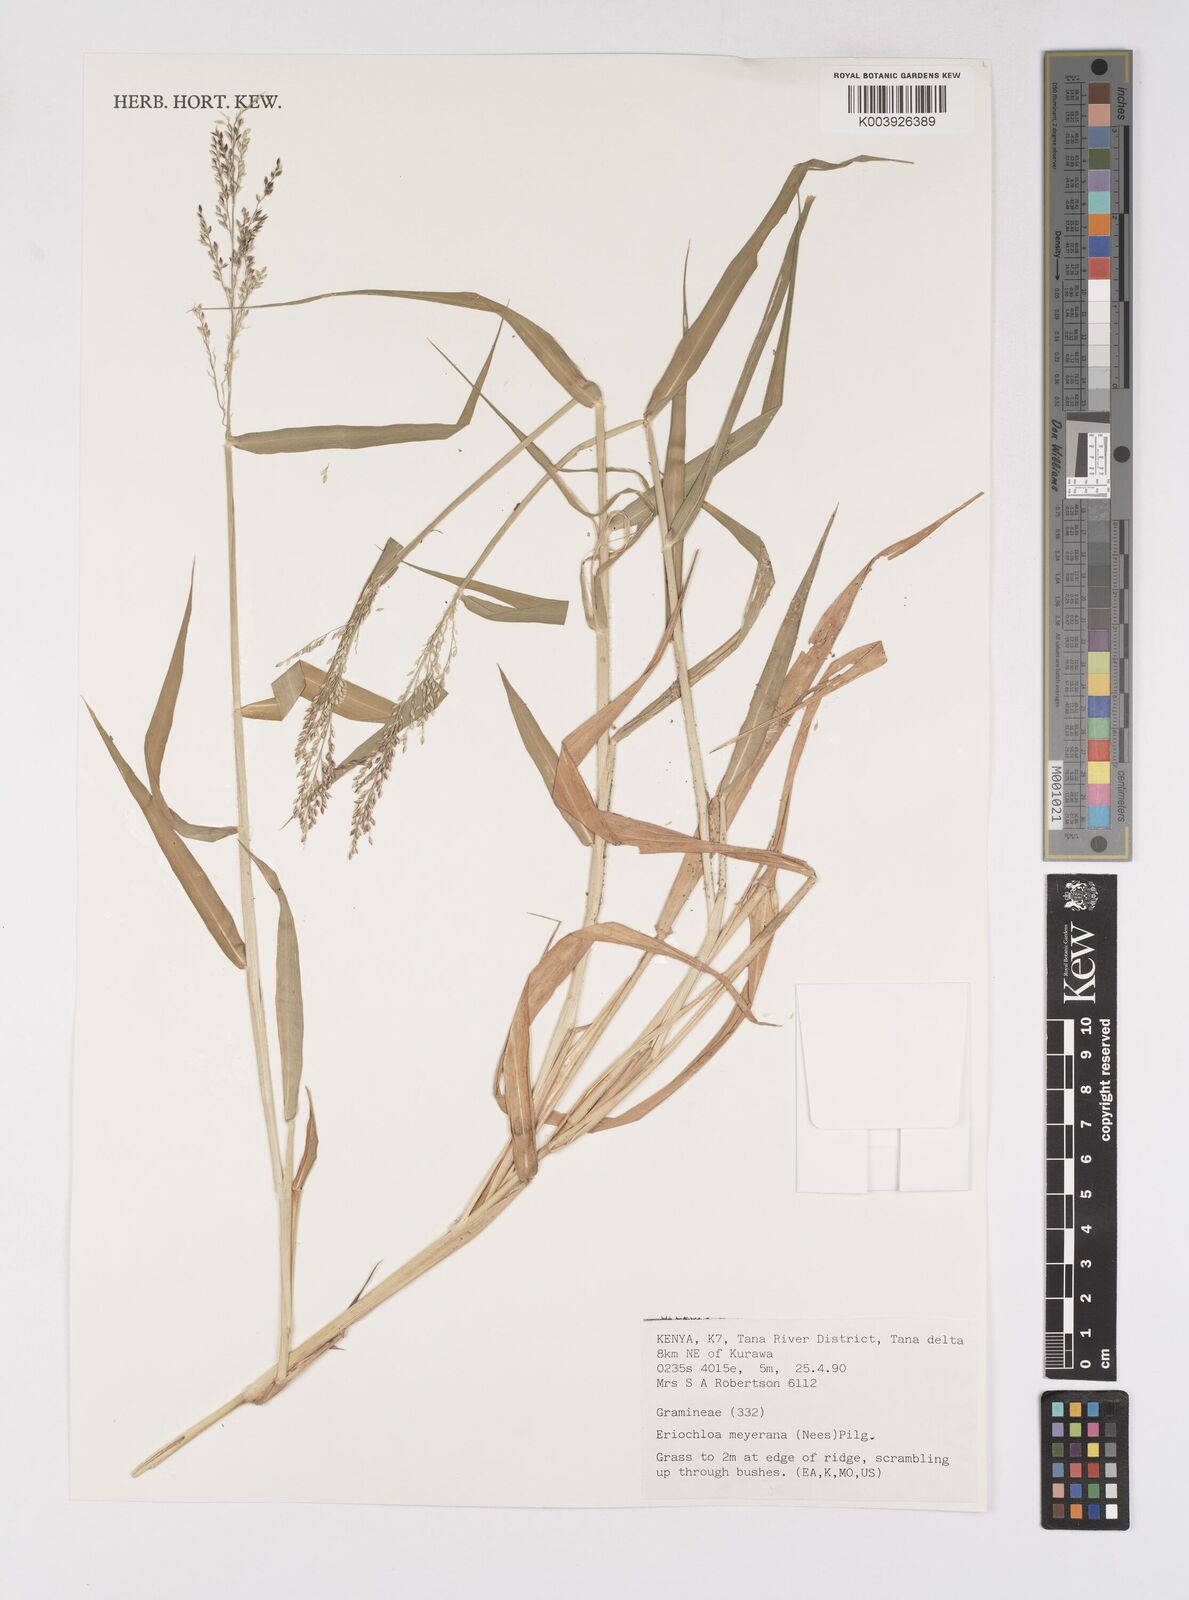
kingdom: Plantae
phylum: Tracheophyta
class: Liliopsida
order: Poales
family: Poaceae
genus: Eriochloa
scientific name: Eriochloa meyeriana
